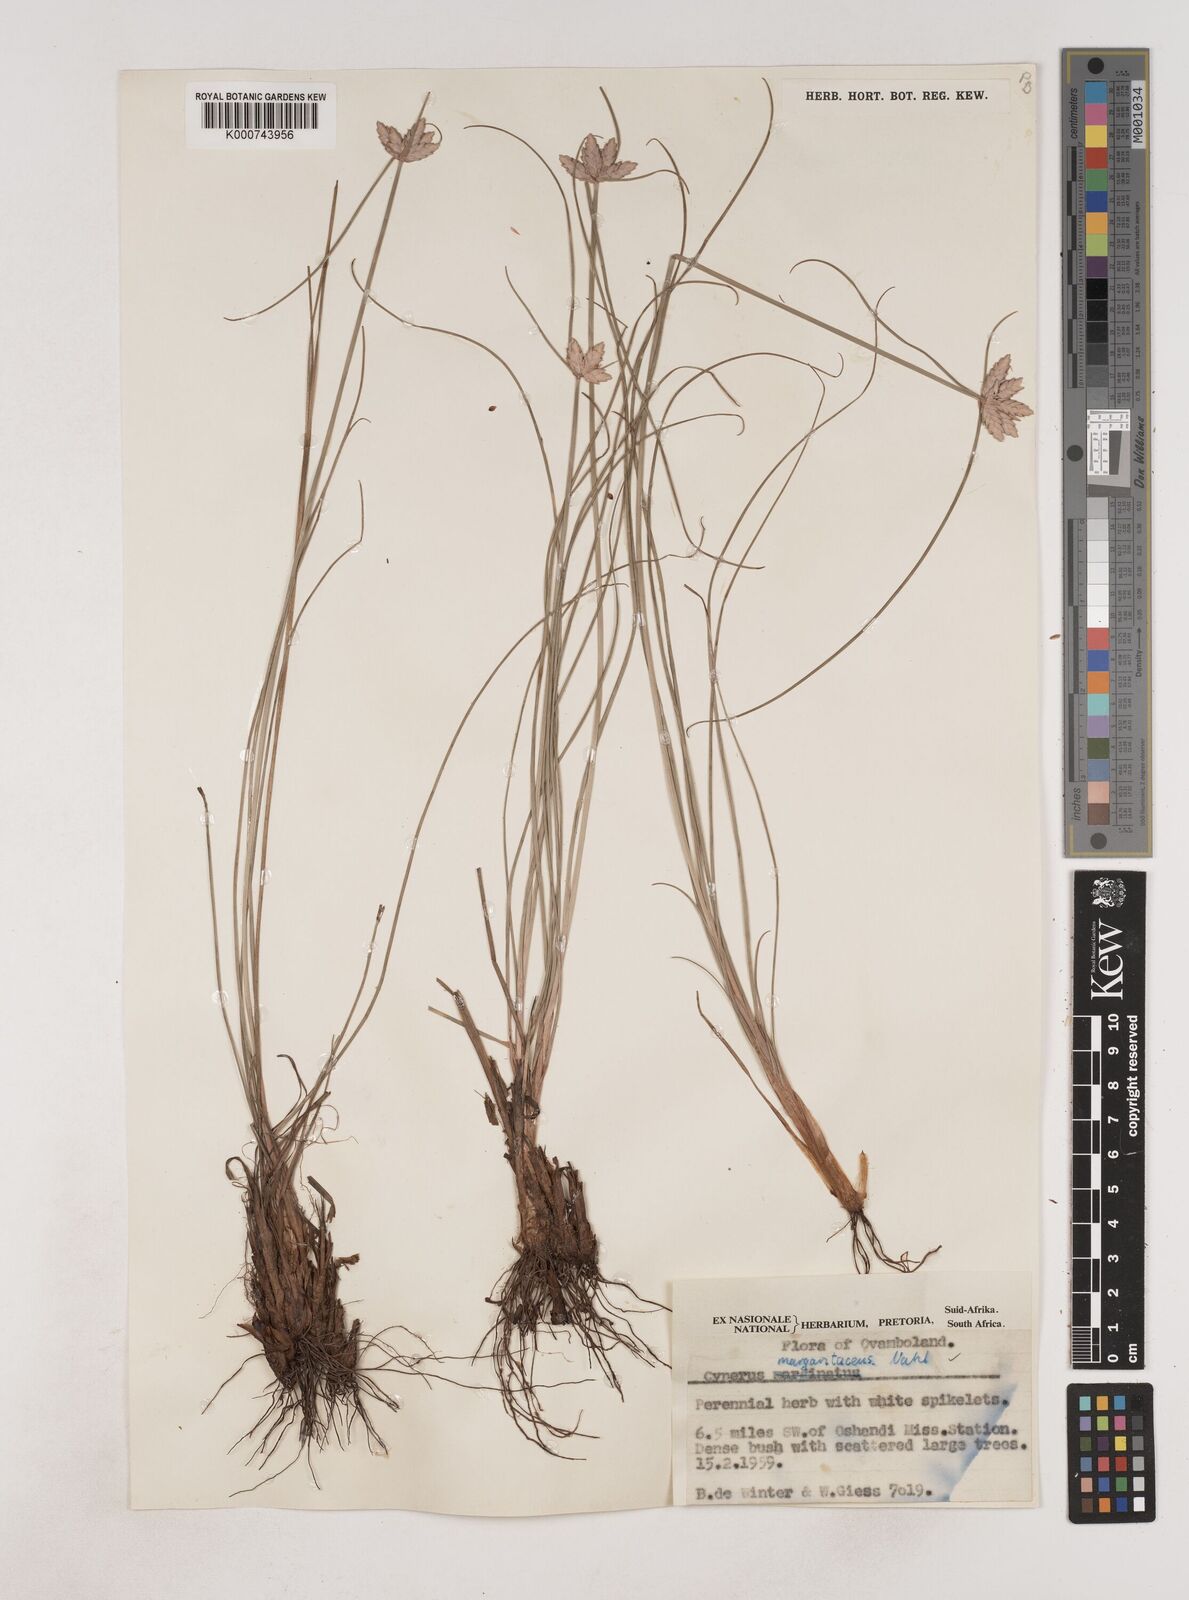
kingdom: Plantae
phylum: Tracheophyta
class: Liliopsida
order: Poales
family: Cyperaceae
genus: Cyperus
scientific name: Cyperus margaritaceus
